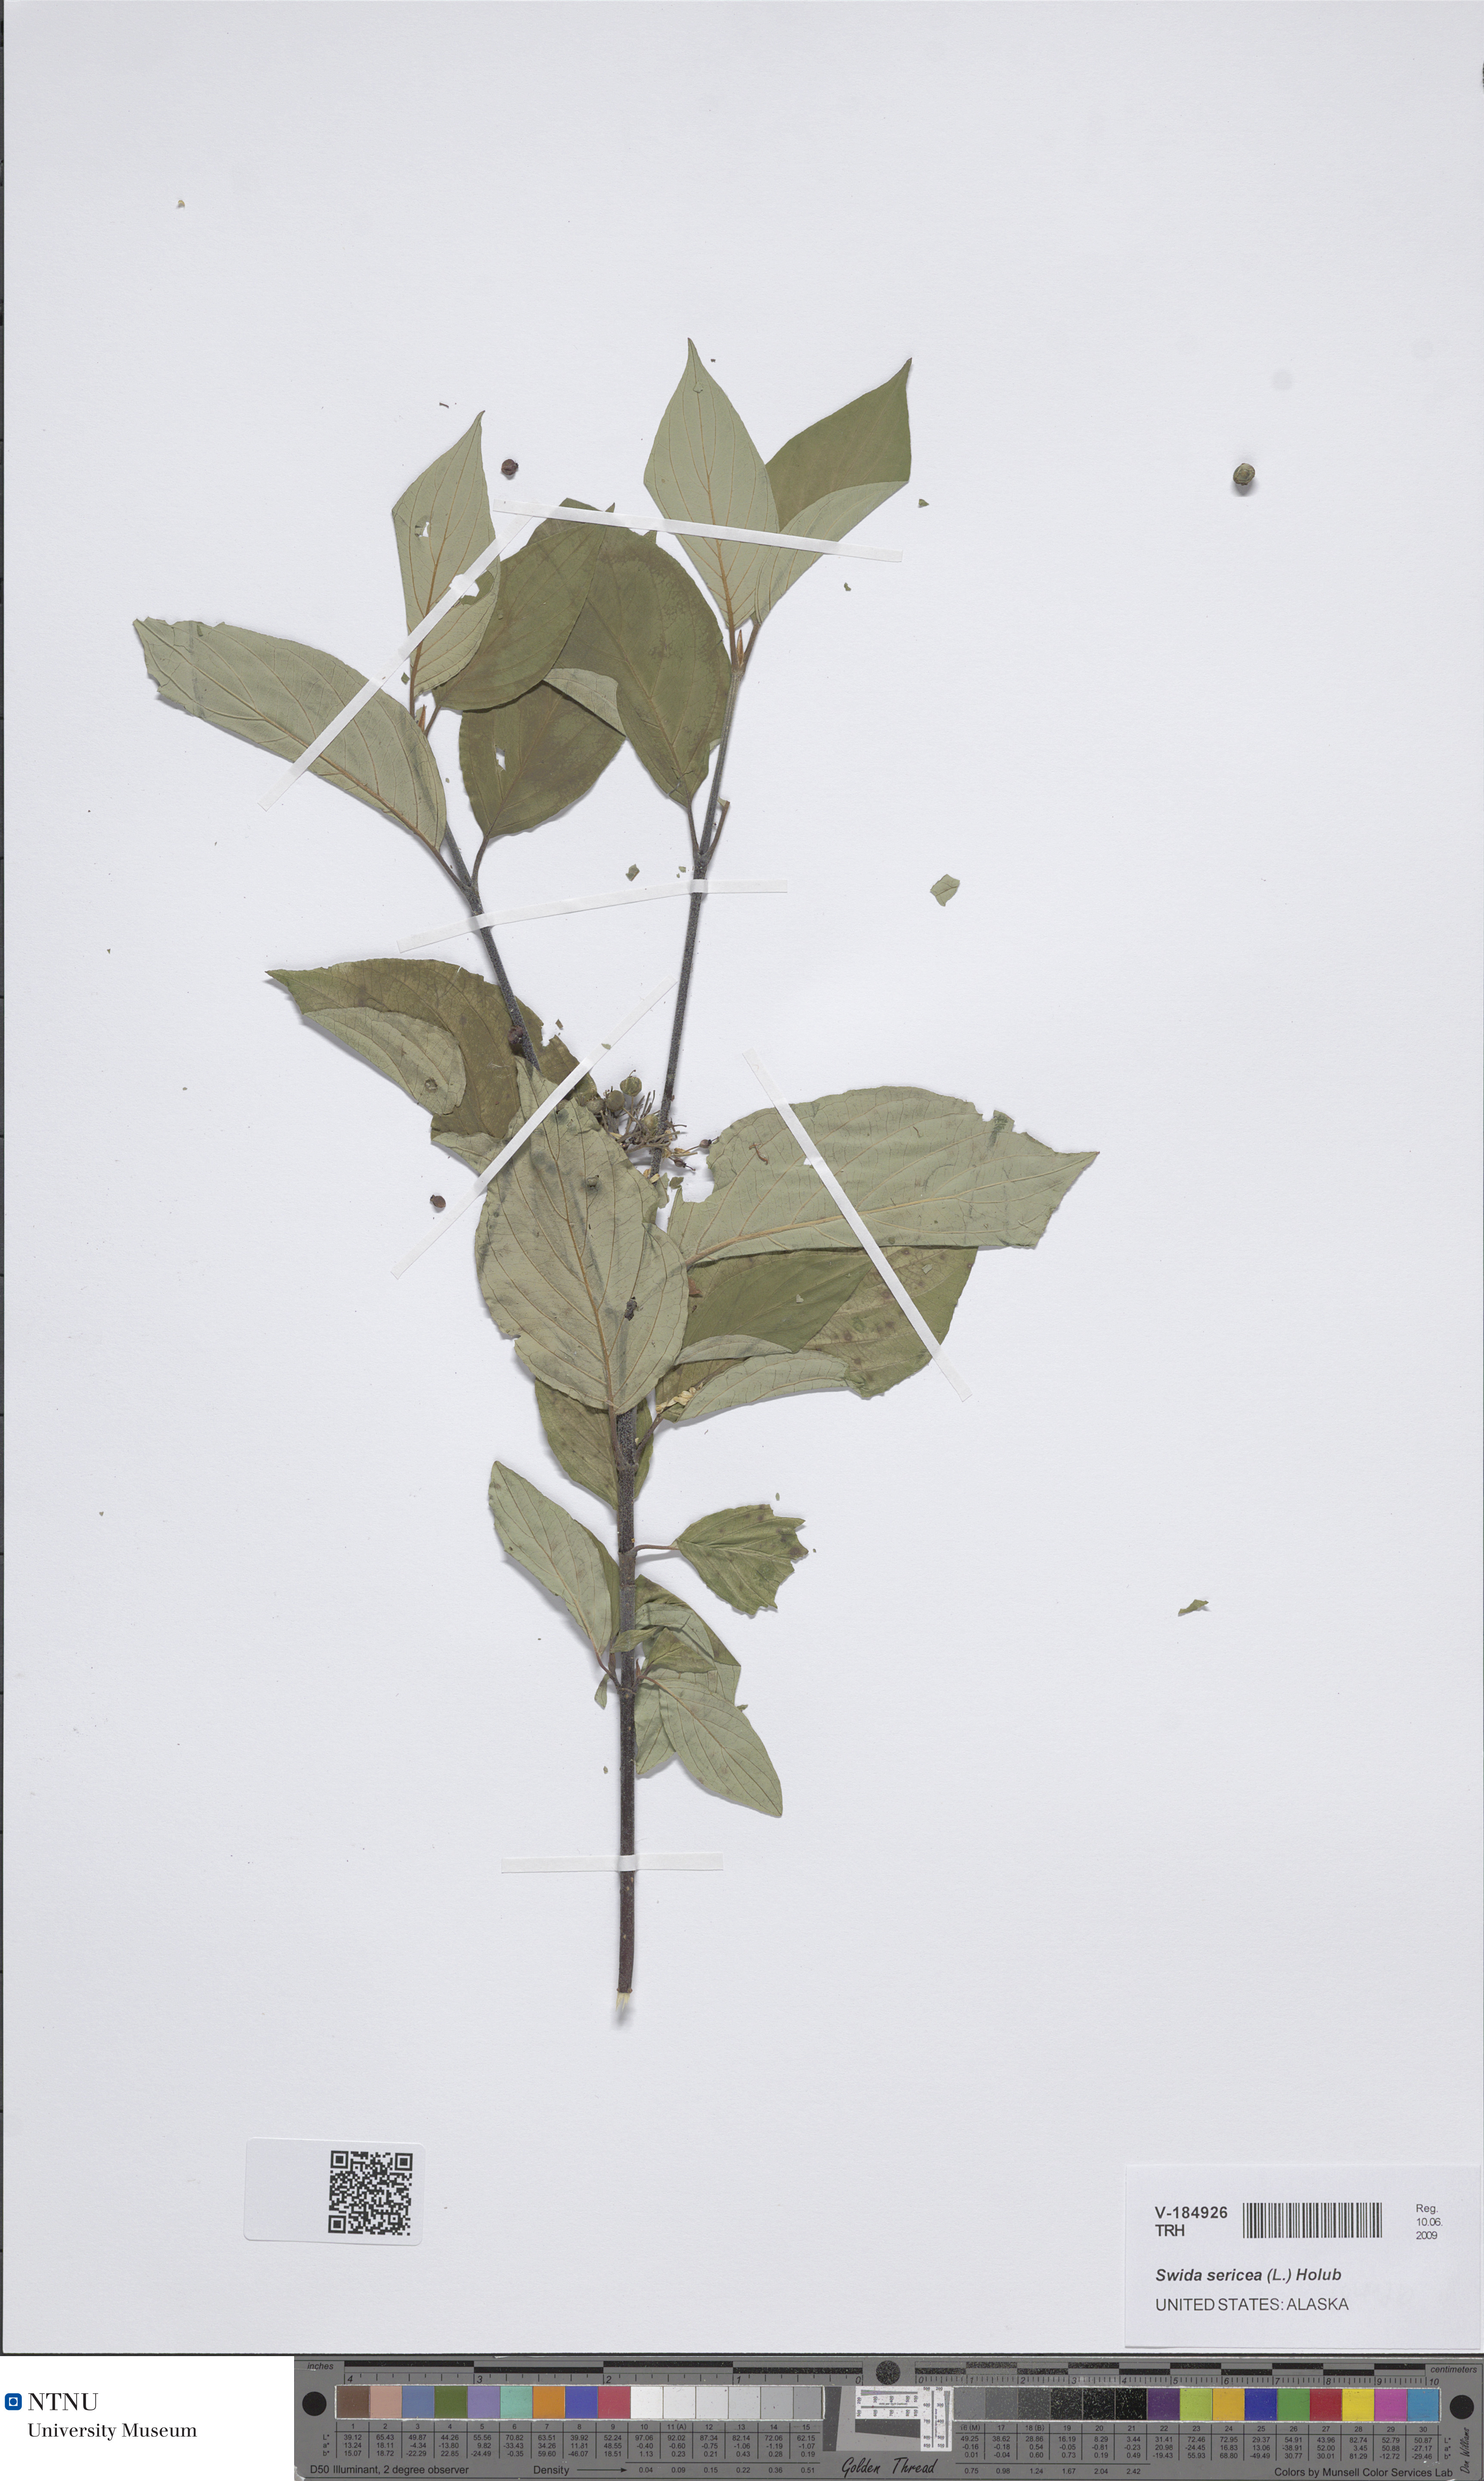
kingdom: Plantae
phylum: Tracheophyta
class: Magnoliopsida
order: Cornales
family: Cornaceae
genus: Cornus
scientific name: Cornus sericea
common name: Red-osier dogwood
